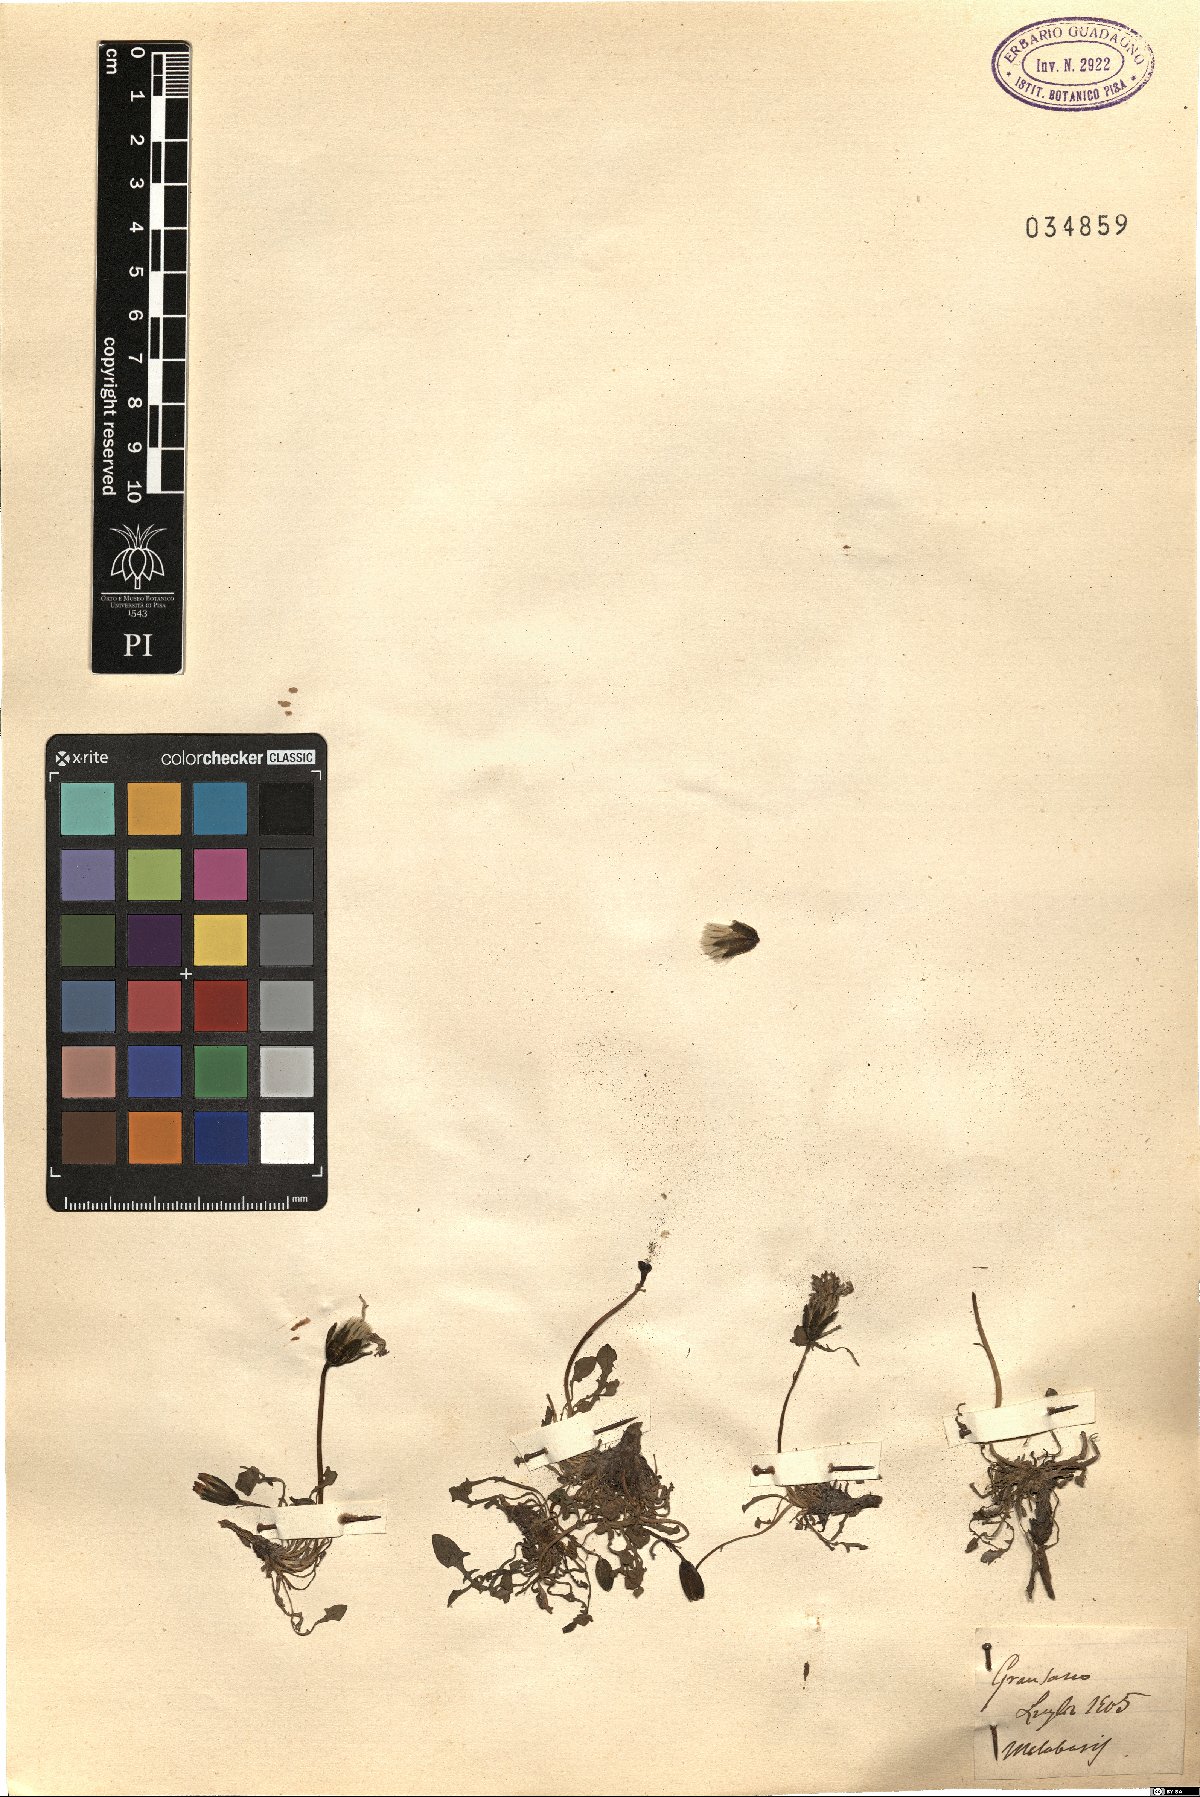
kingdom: Animalia
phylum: Arthropoda
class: Insecta
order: Diptera
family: Stratiomyidae
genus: Metabasis
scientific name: Metabasis
